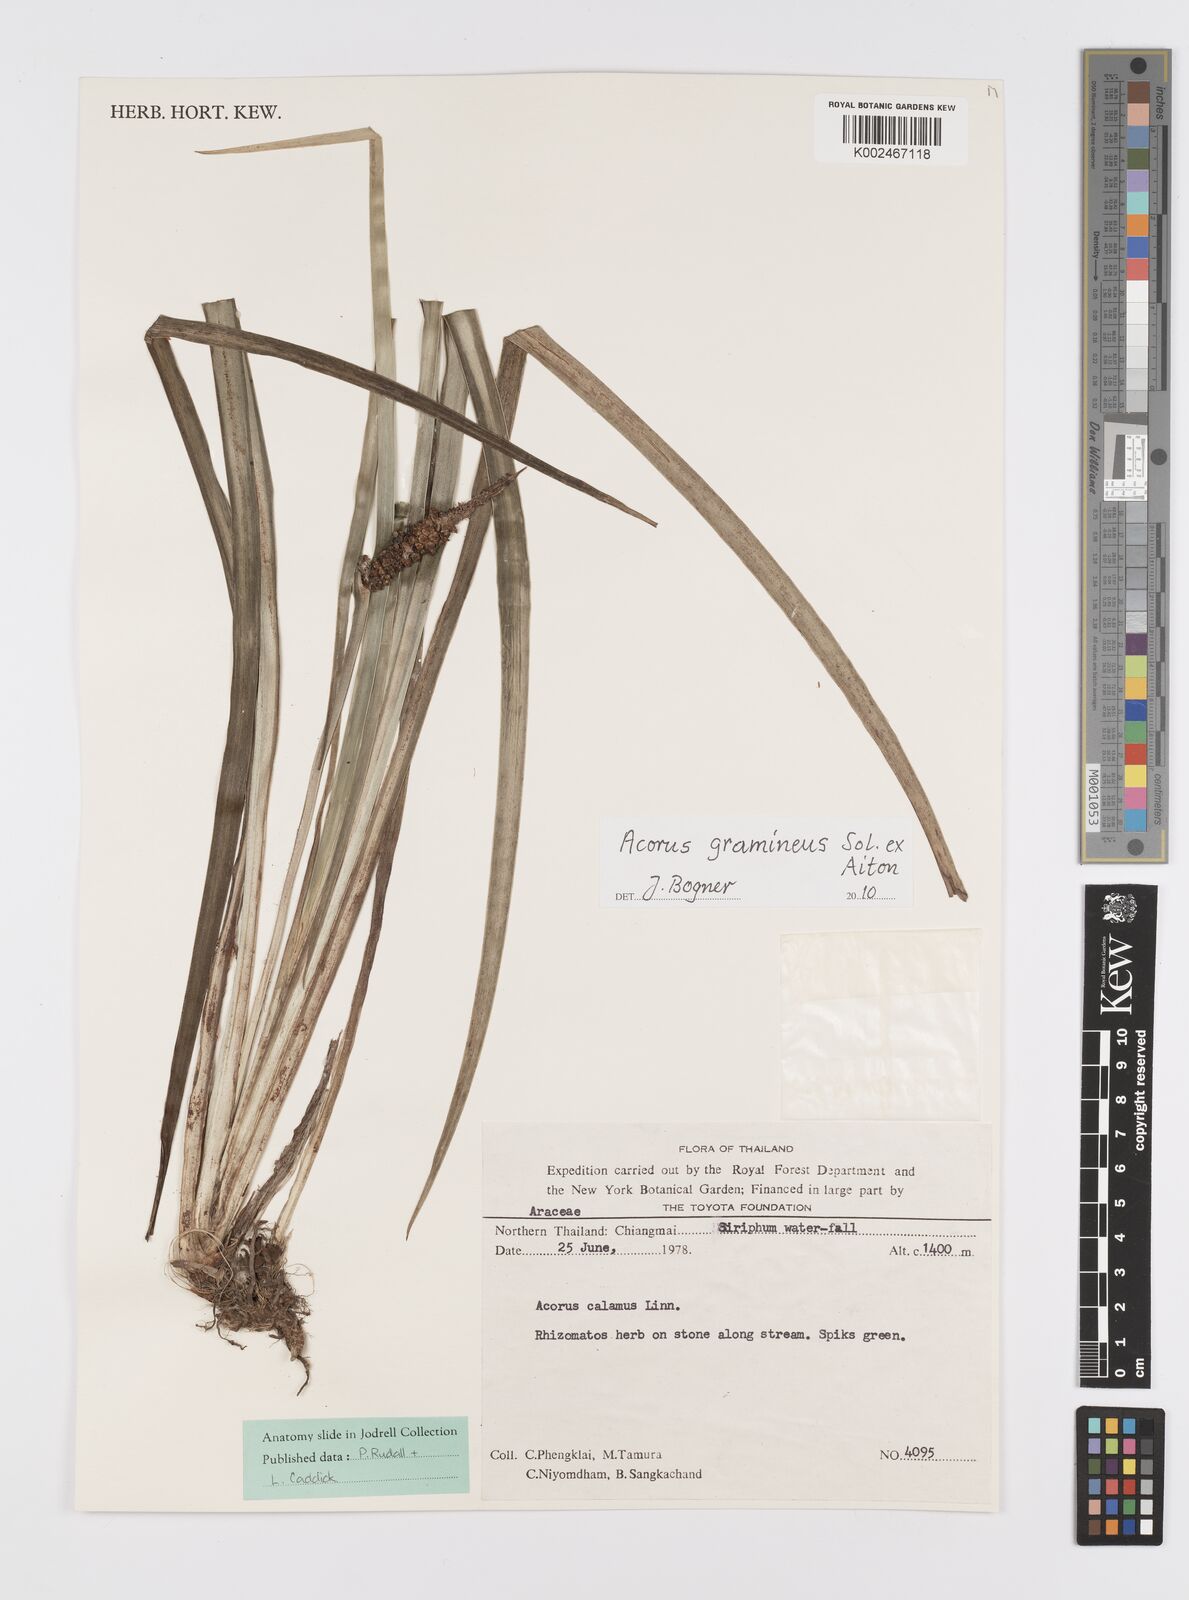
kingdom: Plantae
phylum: Tracheophyta
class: Liliopsida
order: Acorales
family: Acoraceae
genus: Acorus
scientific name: Acorus gramineus
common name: Slender sweet-flag
